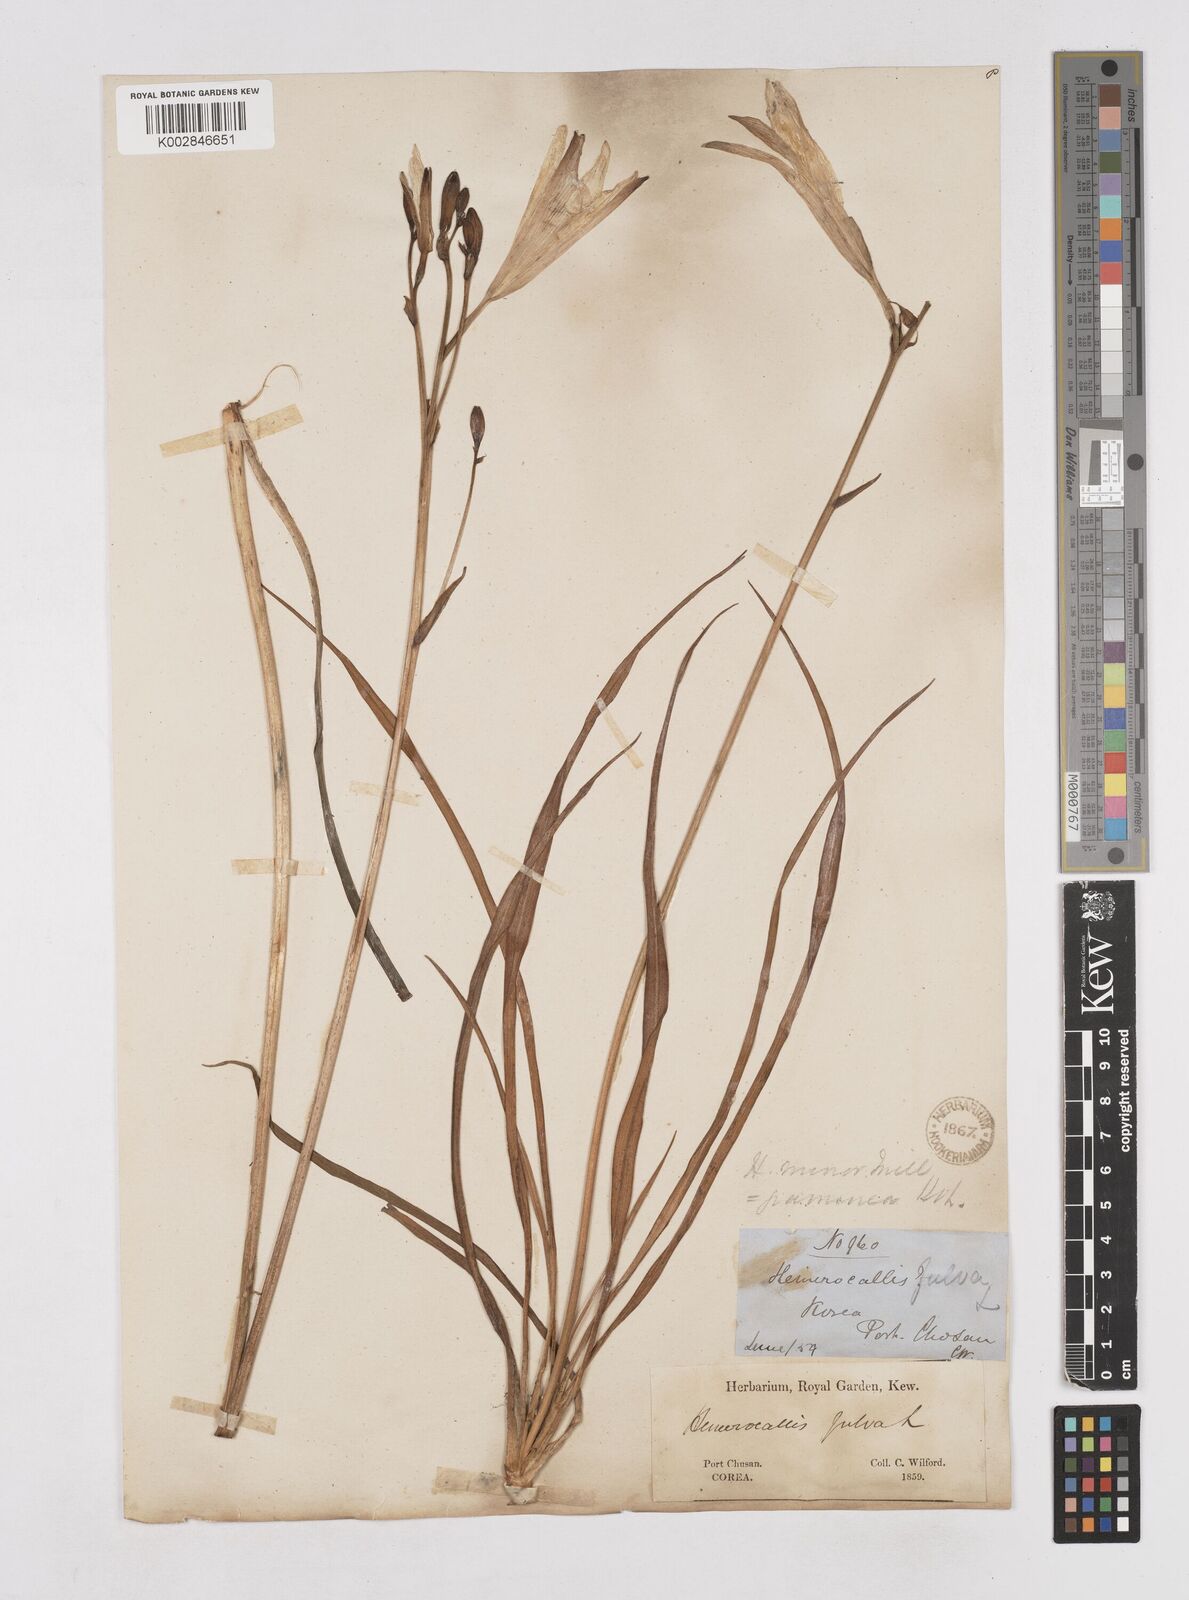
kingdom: Plantae
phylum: Tracheophyta
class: Liliopsida
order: Asparagales
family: Asphodelaceae
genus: Hemerocallis
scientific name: Hemerocallis minor
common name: Small daylily
